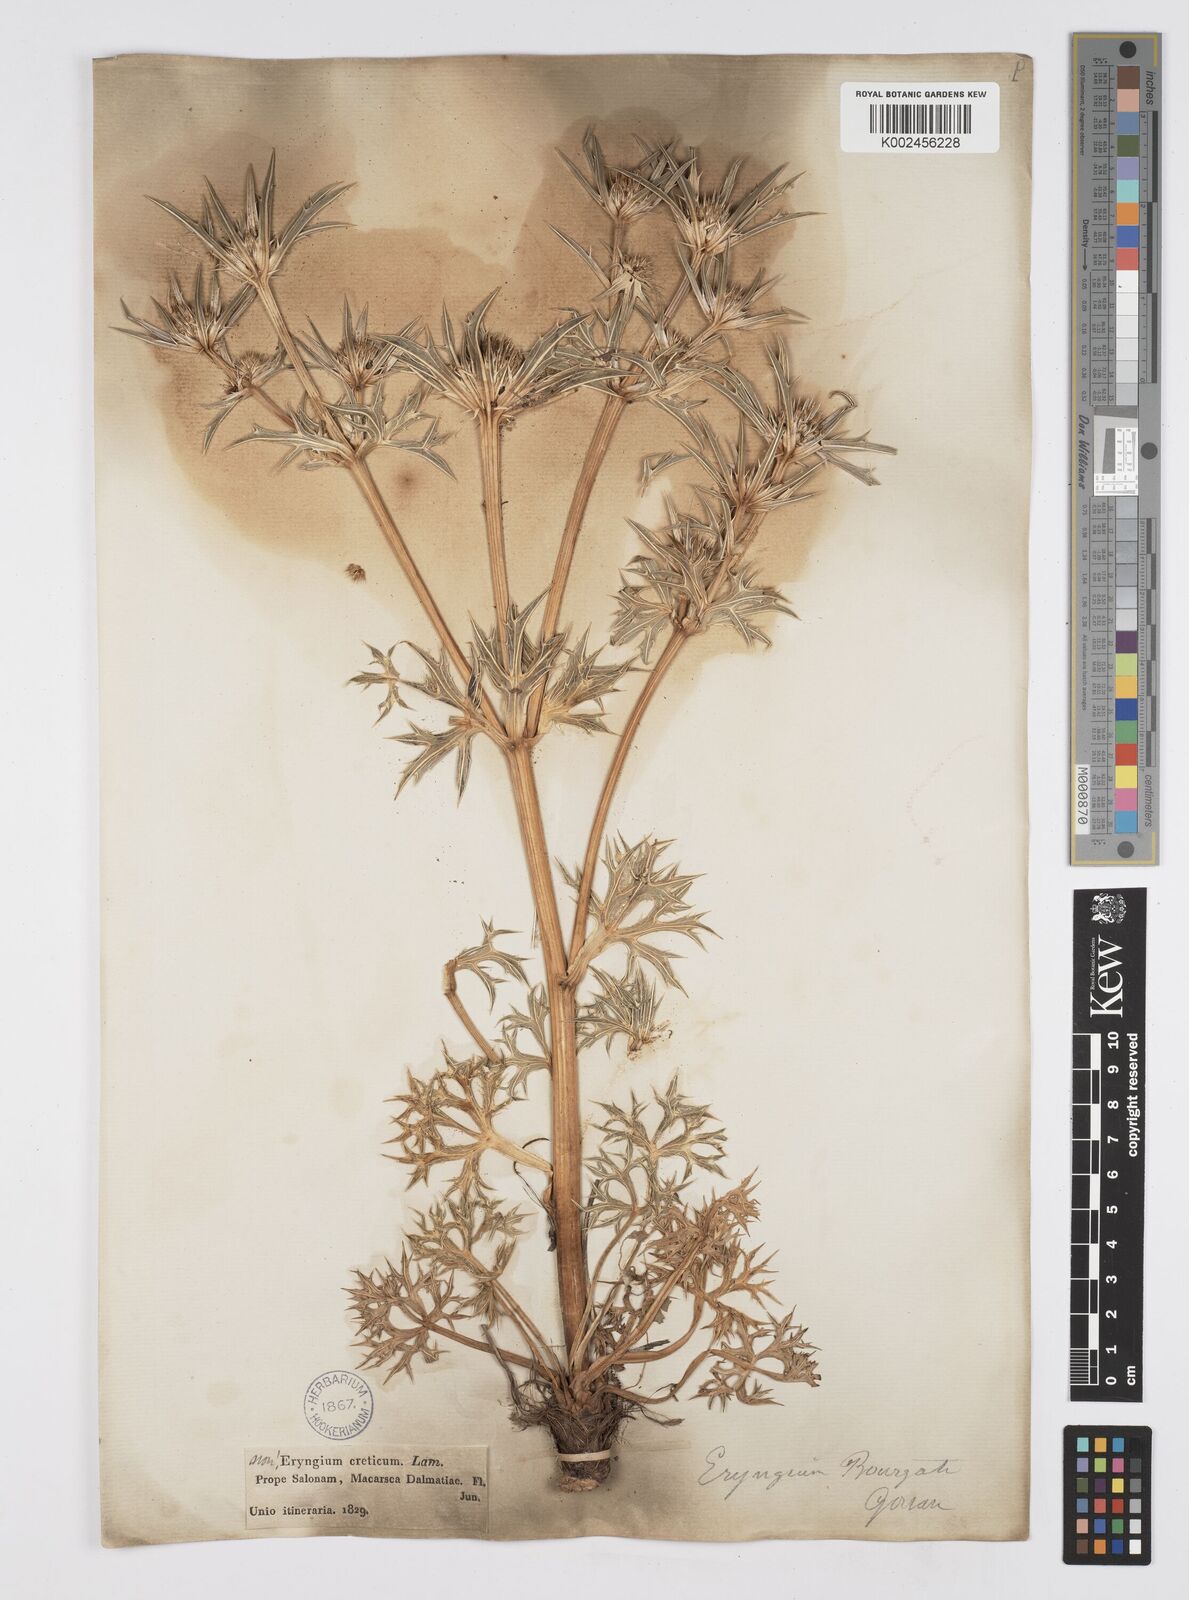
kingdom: Plantae
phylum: Tracheophyta
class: Magnoliopsida
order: Apiales
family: Apiaceae
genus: Eryngium
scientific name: Eryngium bourgatii
